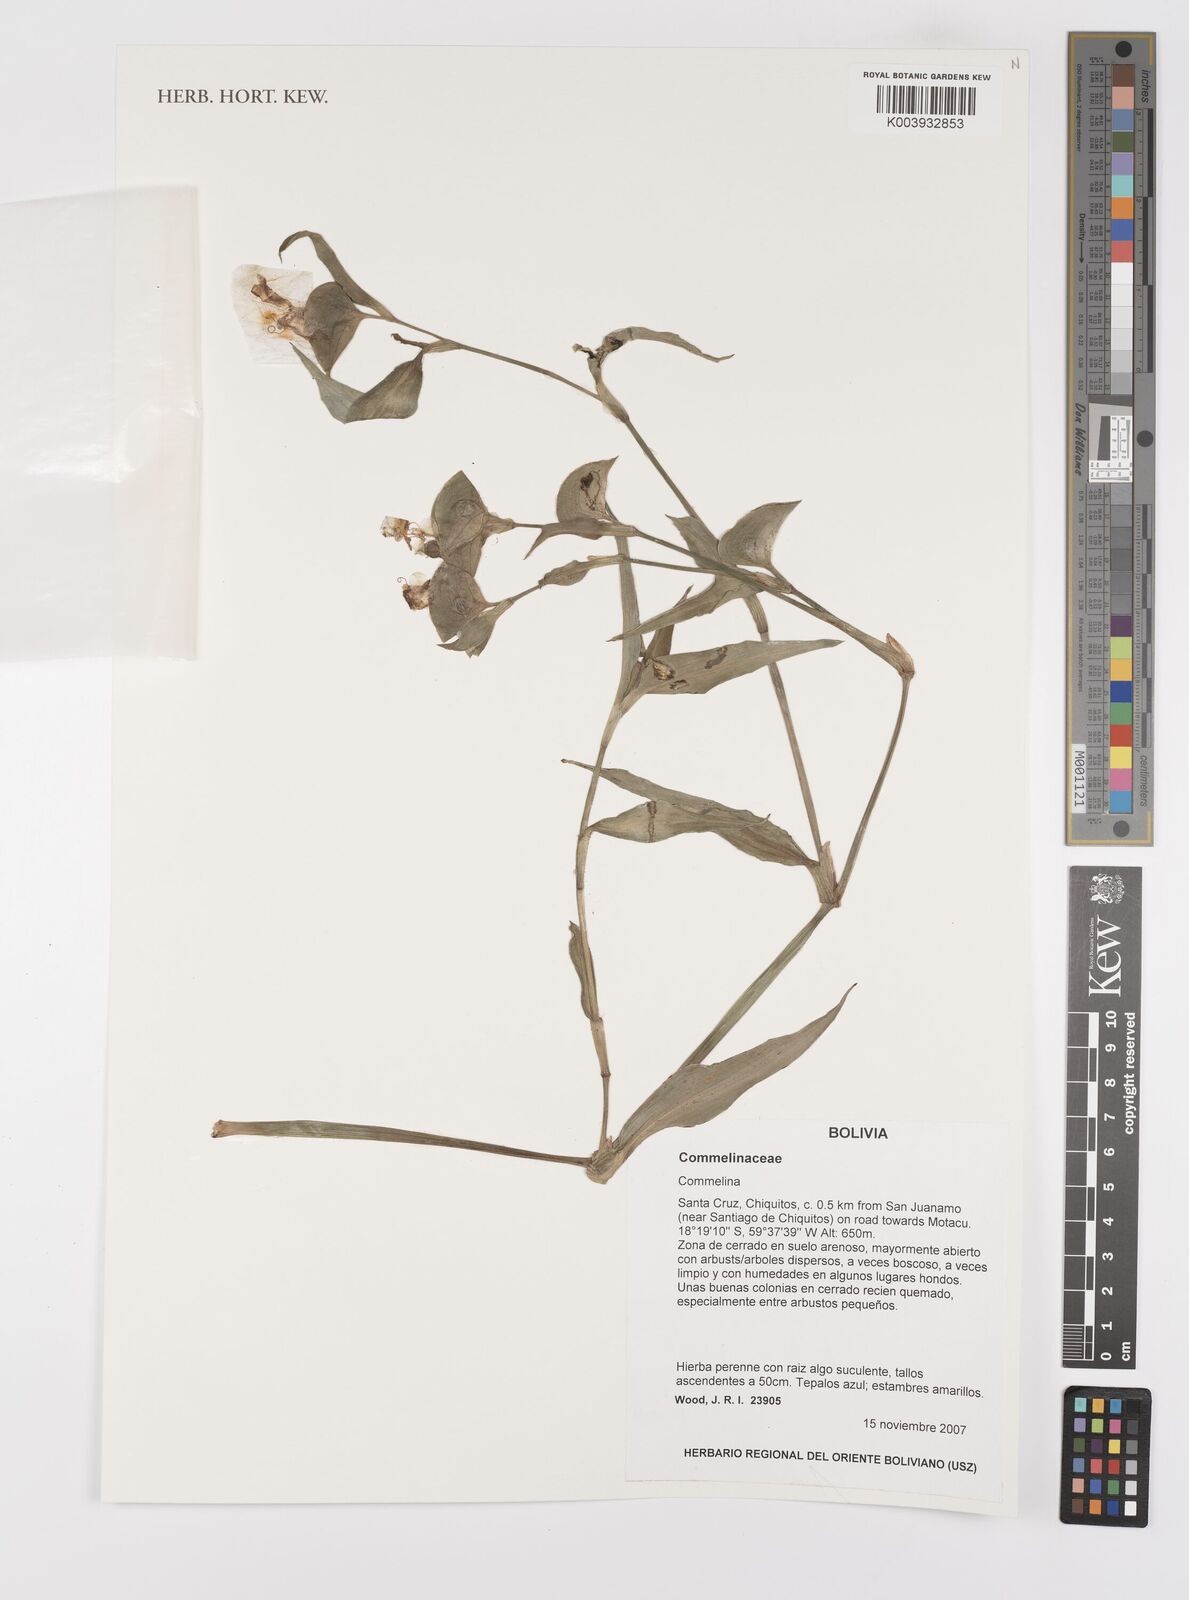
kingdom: Plantae
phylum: Tracheophyta
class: Liliopsida
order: Commelinales
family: Commelinaceae
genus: Commelina
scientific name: Commelina
